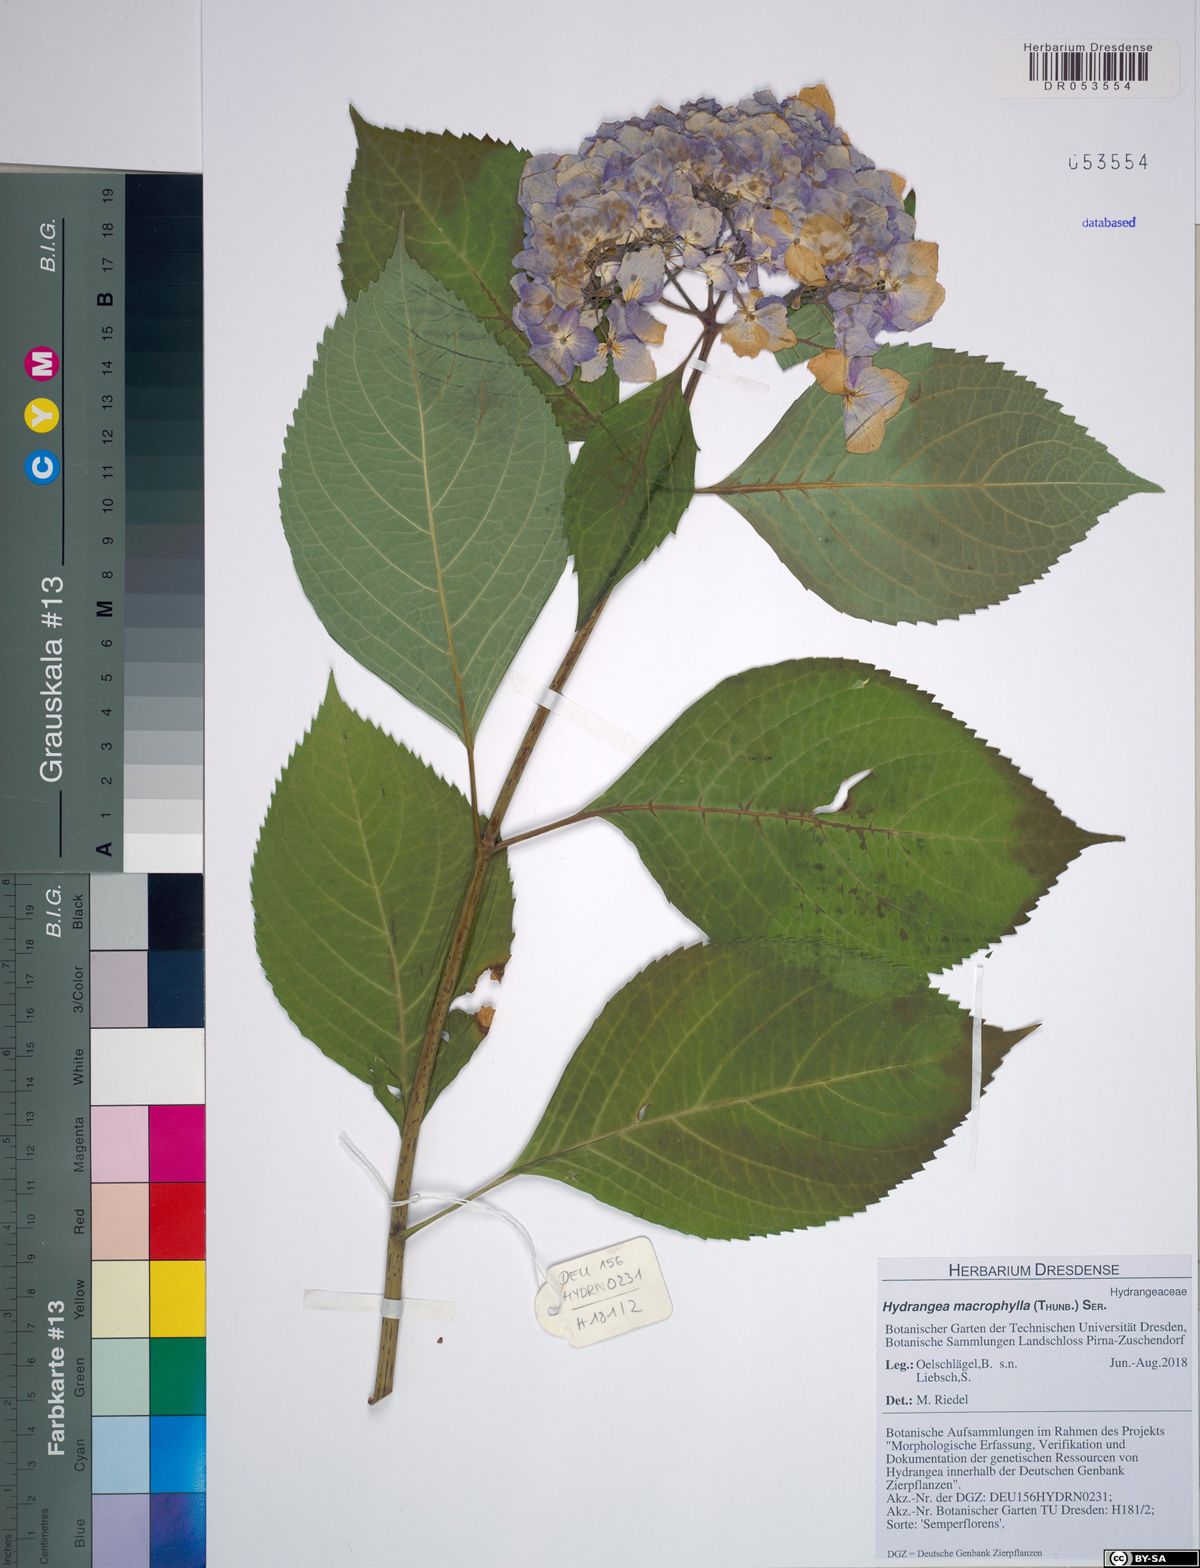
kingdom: Plantae
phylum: Tracheophyta
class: Magnoliopsida
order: Cornales
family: Hydrangeaceae
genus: Hydrangea
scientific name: Hydrangea macrophylla
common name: Hydrangea
